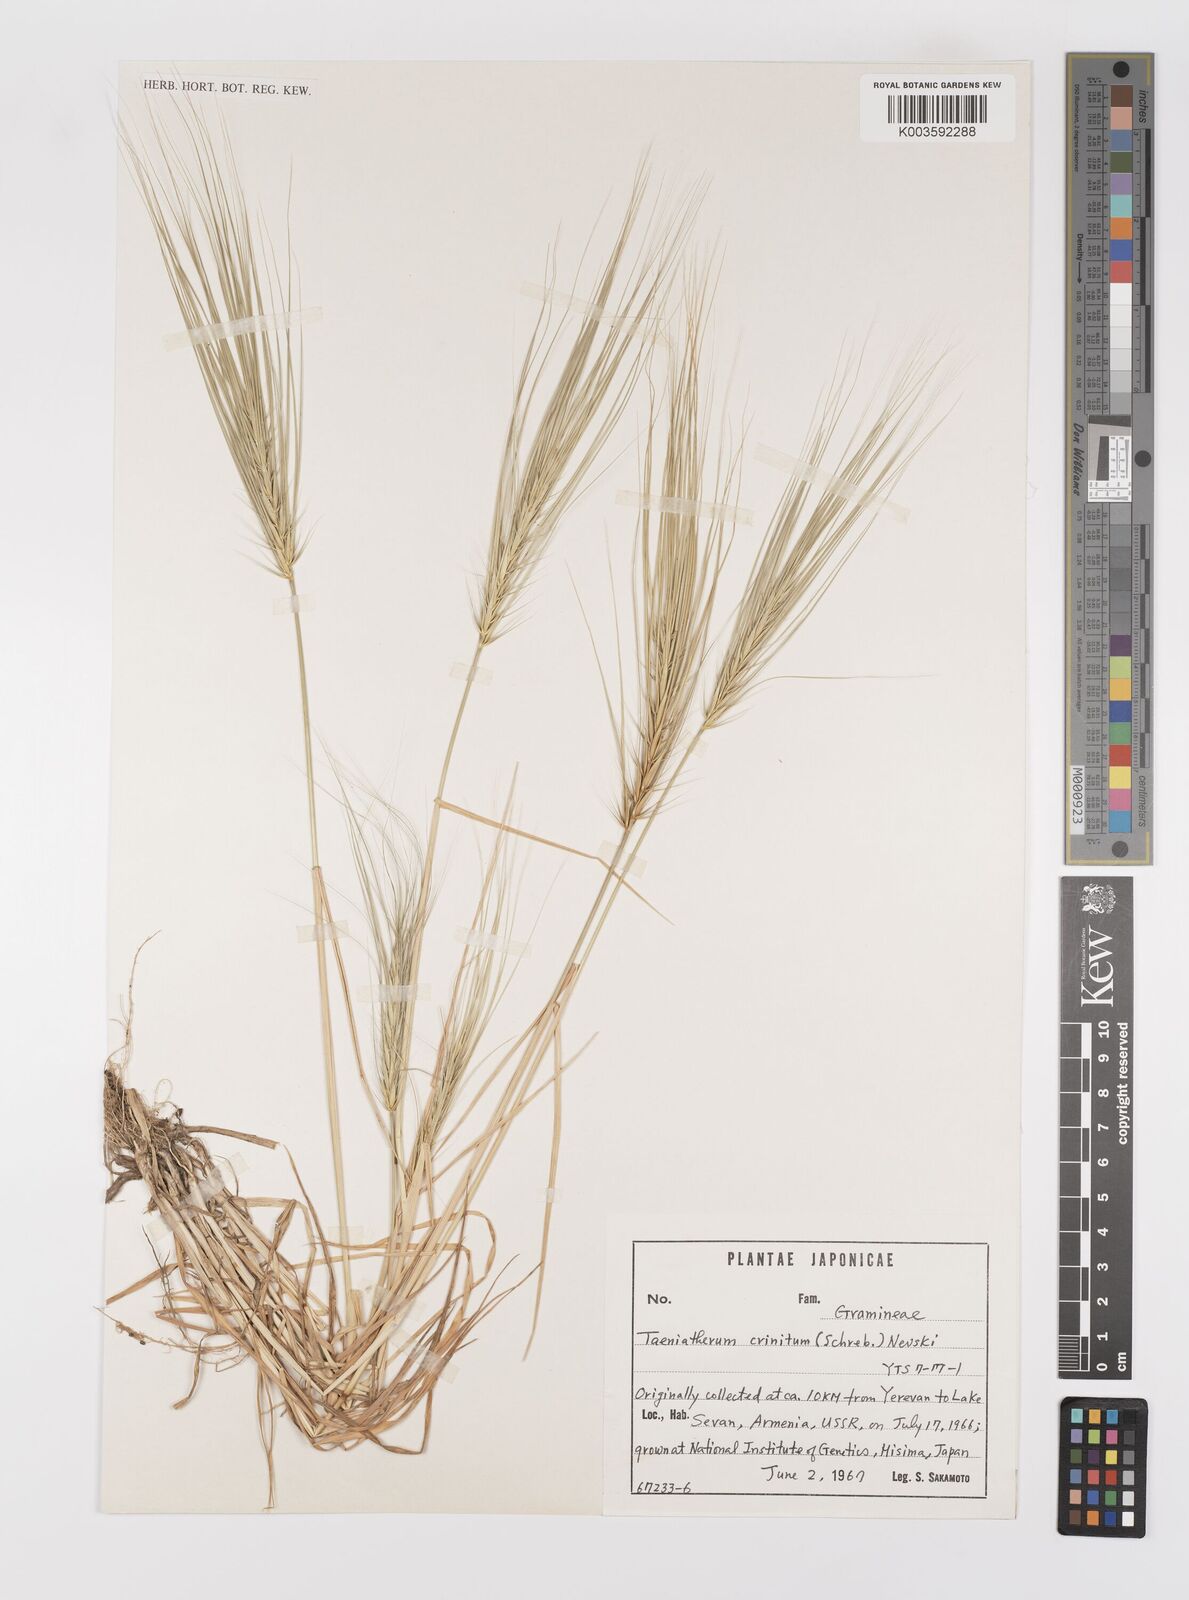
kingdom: Plantae
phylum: Tracheophyta
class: Liliopsida
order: Poales
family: Poaceae
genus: Taeniatherum
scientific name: Taeniatherum caput-medusae
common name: Medusahead
